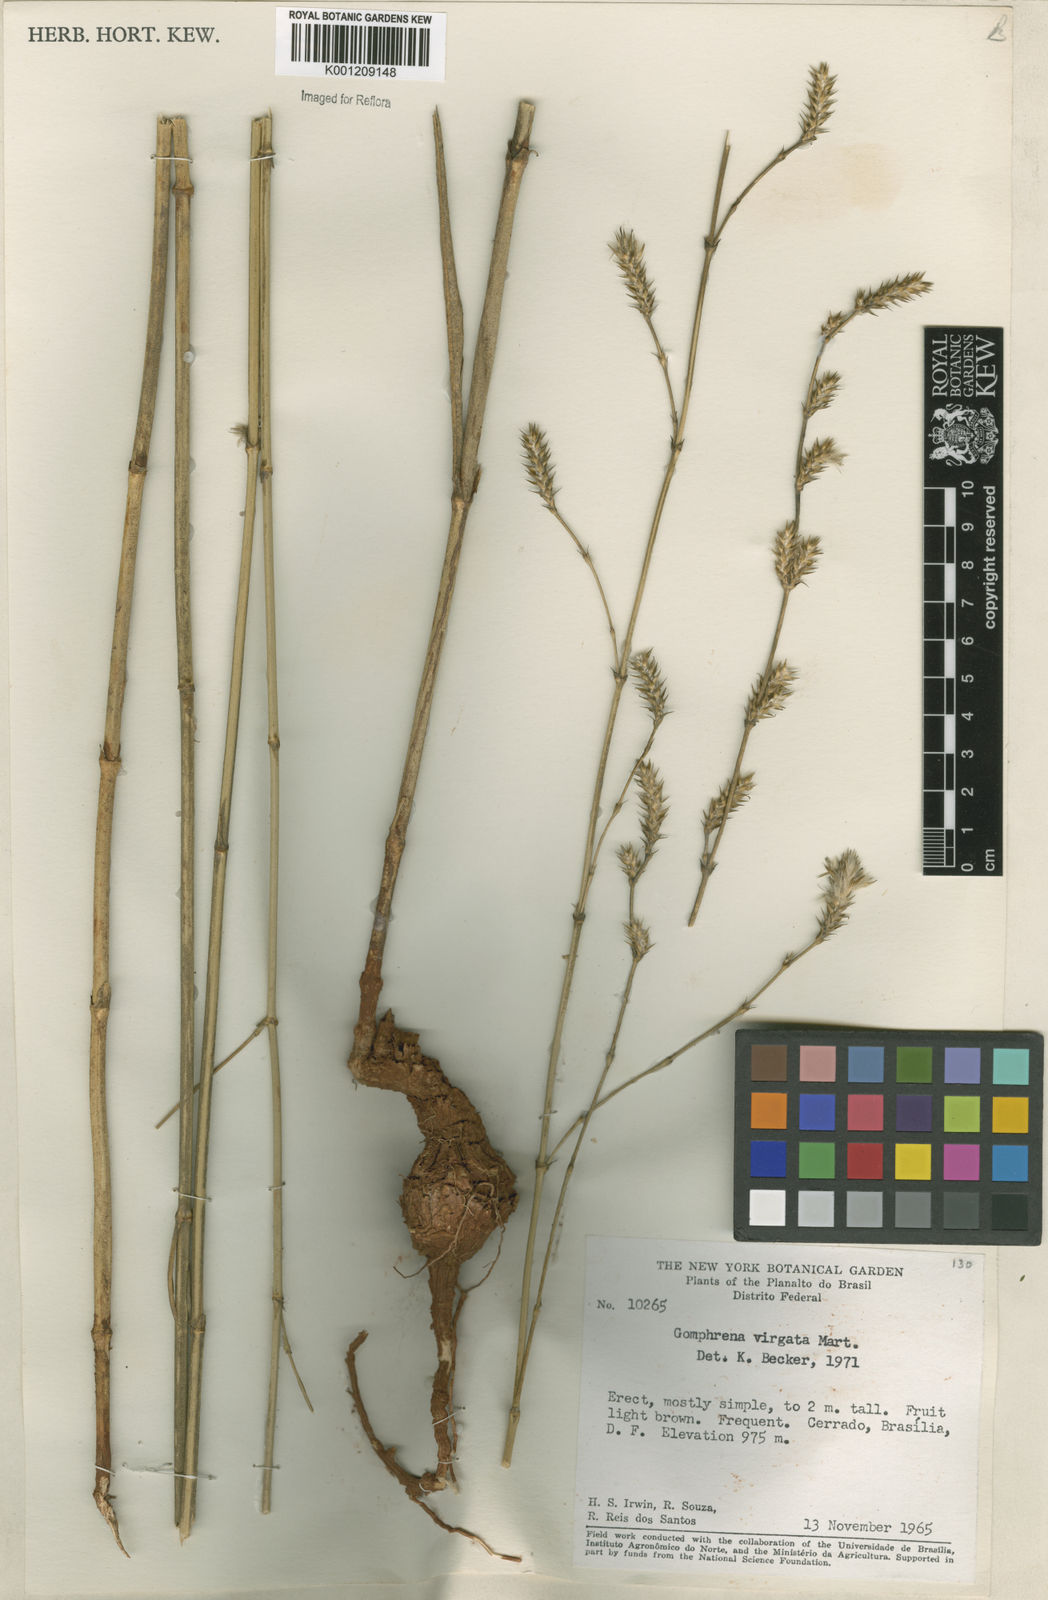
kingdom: Plantae
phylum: Tracheophyta
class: Magnoliopsida
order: Caryophyllales
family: Amaranthaceae
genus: Gomphrena
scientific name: Gomphrena virgata
